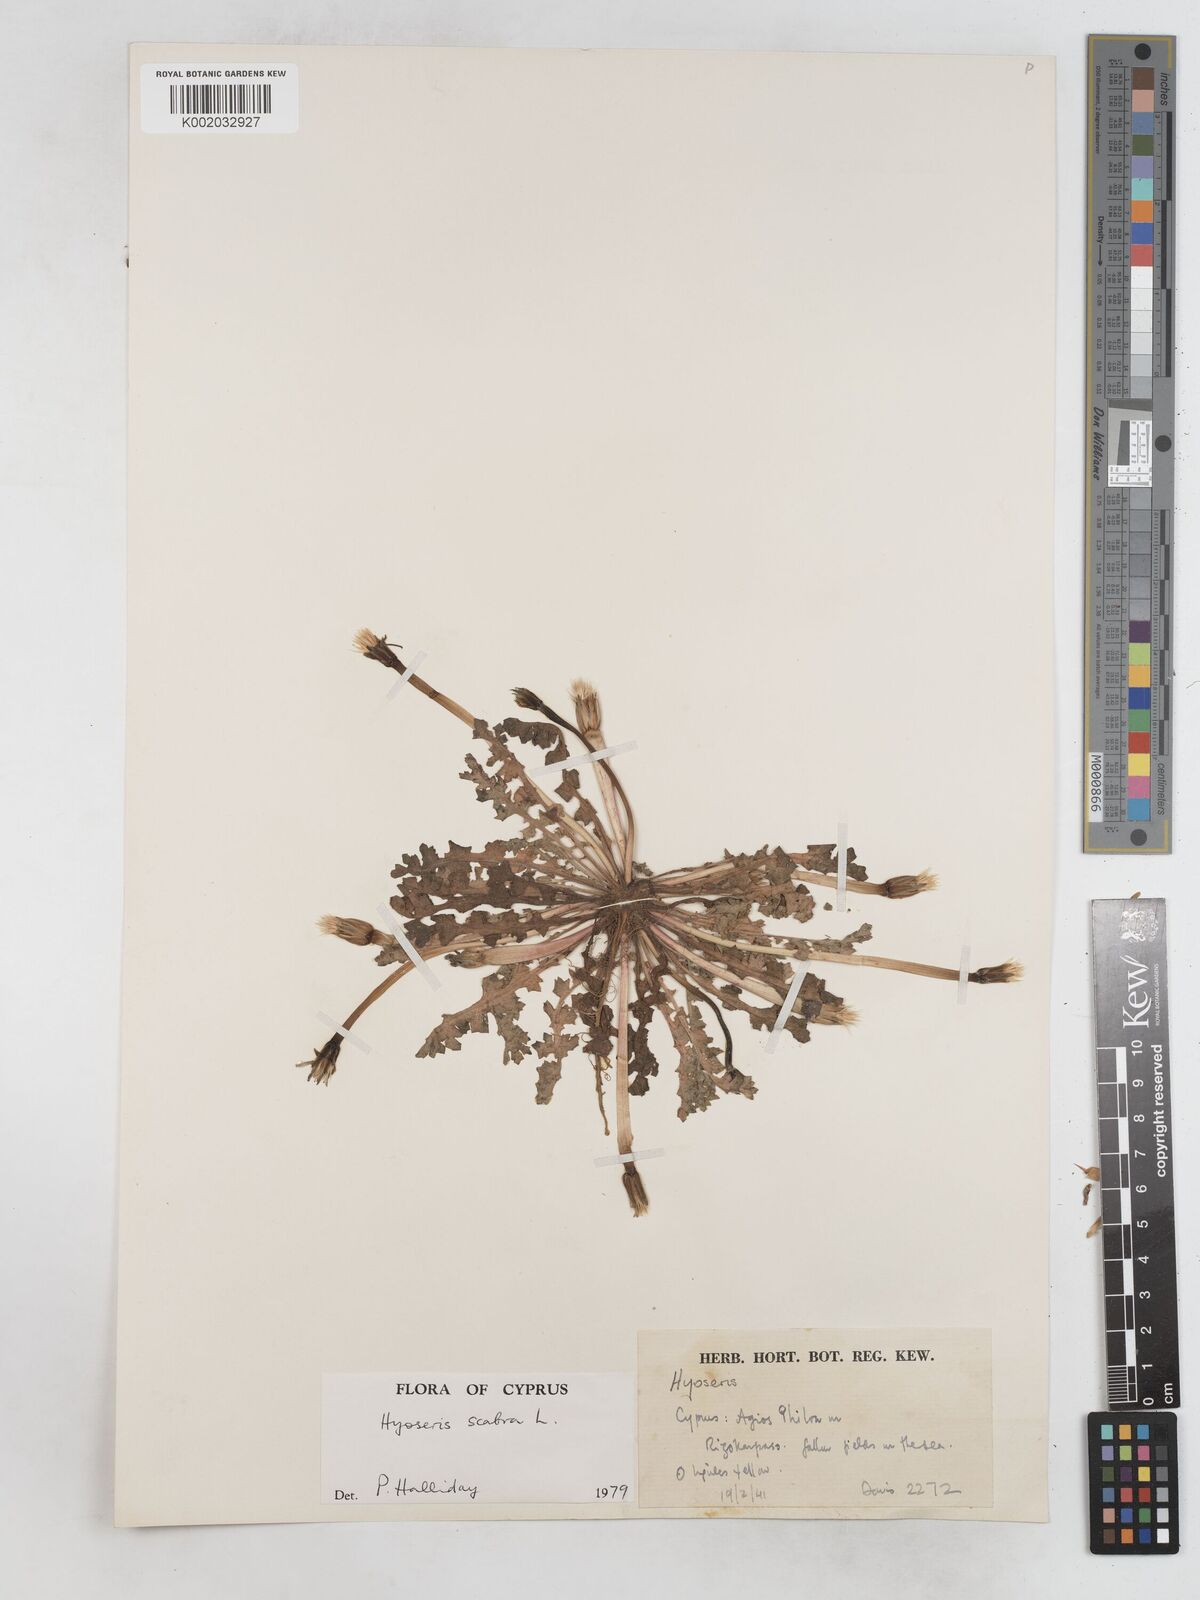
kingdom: Plantae
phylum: Tracheophyta
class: Magnoliopsida
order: Asterales
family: Asteraceae
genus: Hyoseris
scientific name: Hyoseris scabra
